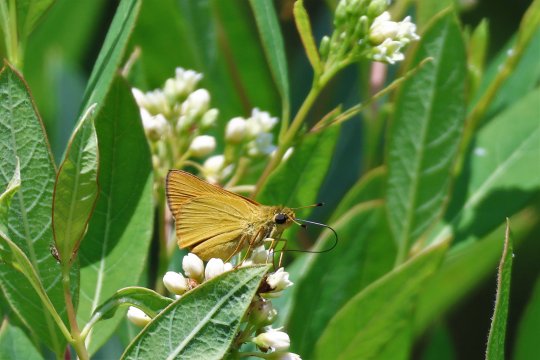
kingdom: Animalia
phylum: Arthropoda
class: Insecta
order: Lepidoptera
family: Hesperiidae
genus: Atrytone
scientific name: Atrytone delaware
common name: Delaware Skipper
